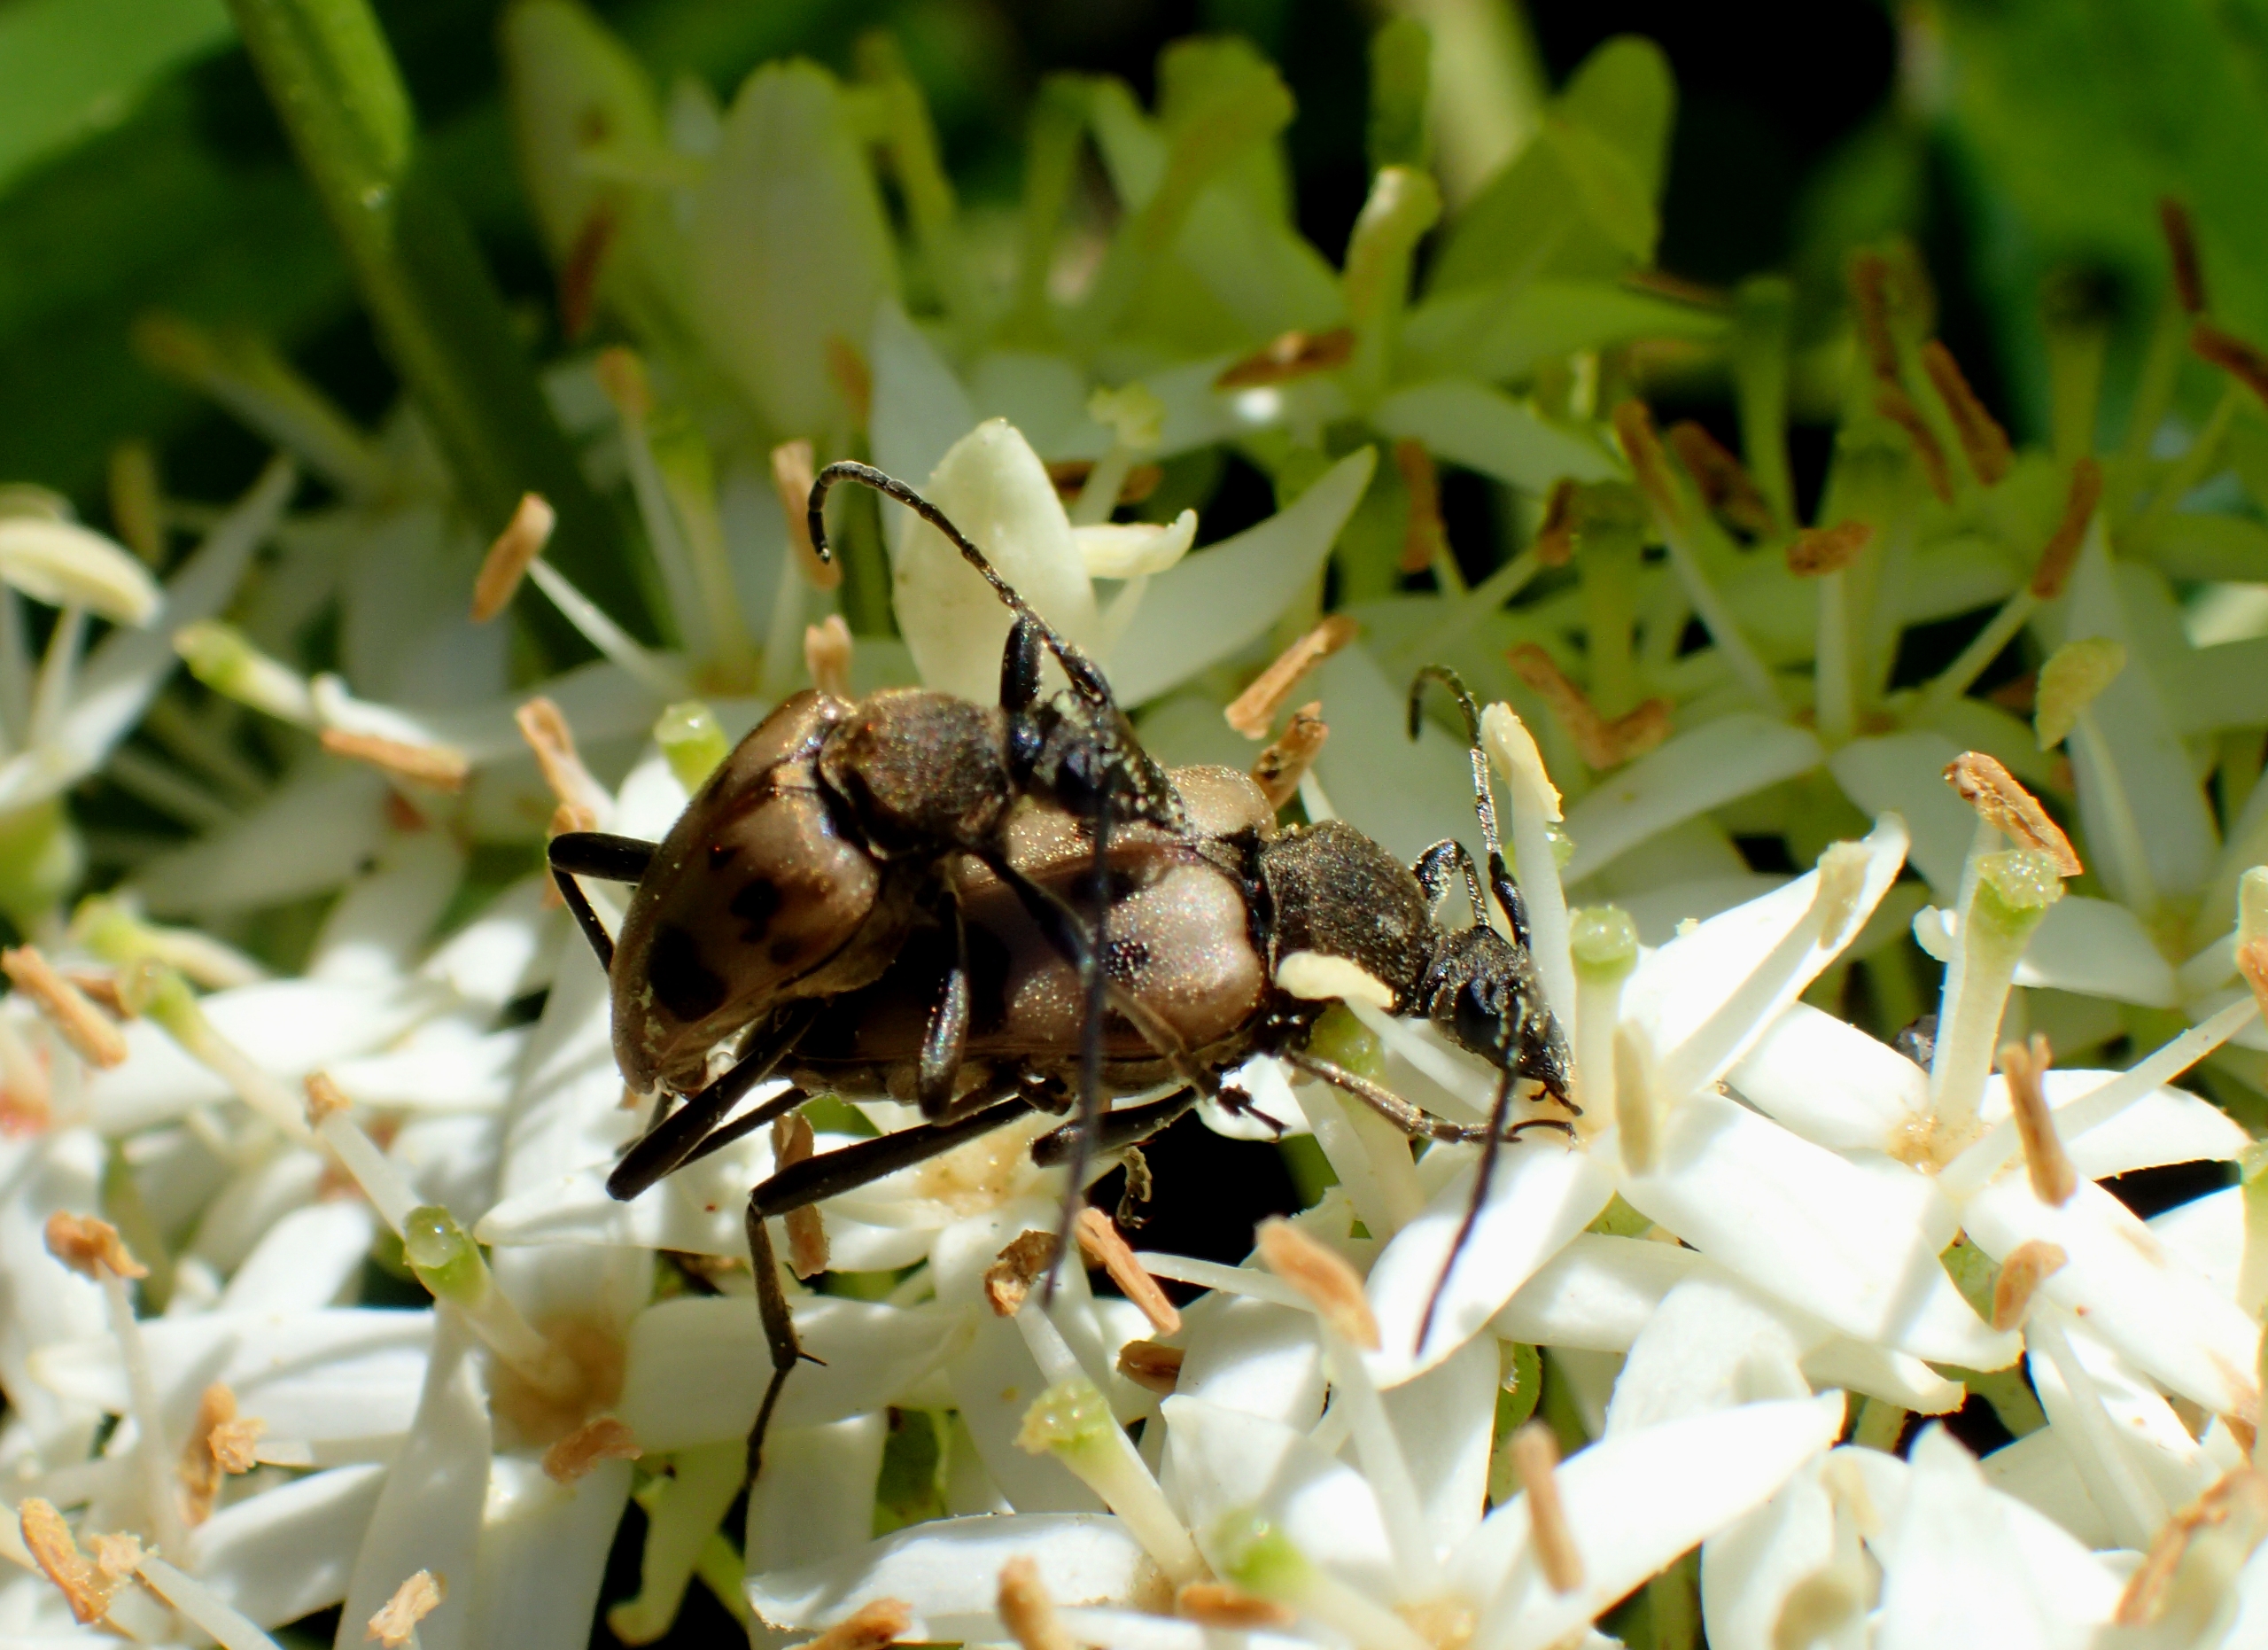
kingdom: Animalia
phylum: Arthropoda
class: Insecta
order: Coleoptera
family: Cerambycidae
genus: Pachytodes
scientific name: Pachytodes cerambyciformis
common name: Jysk blomsterbuk
